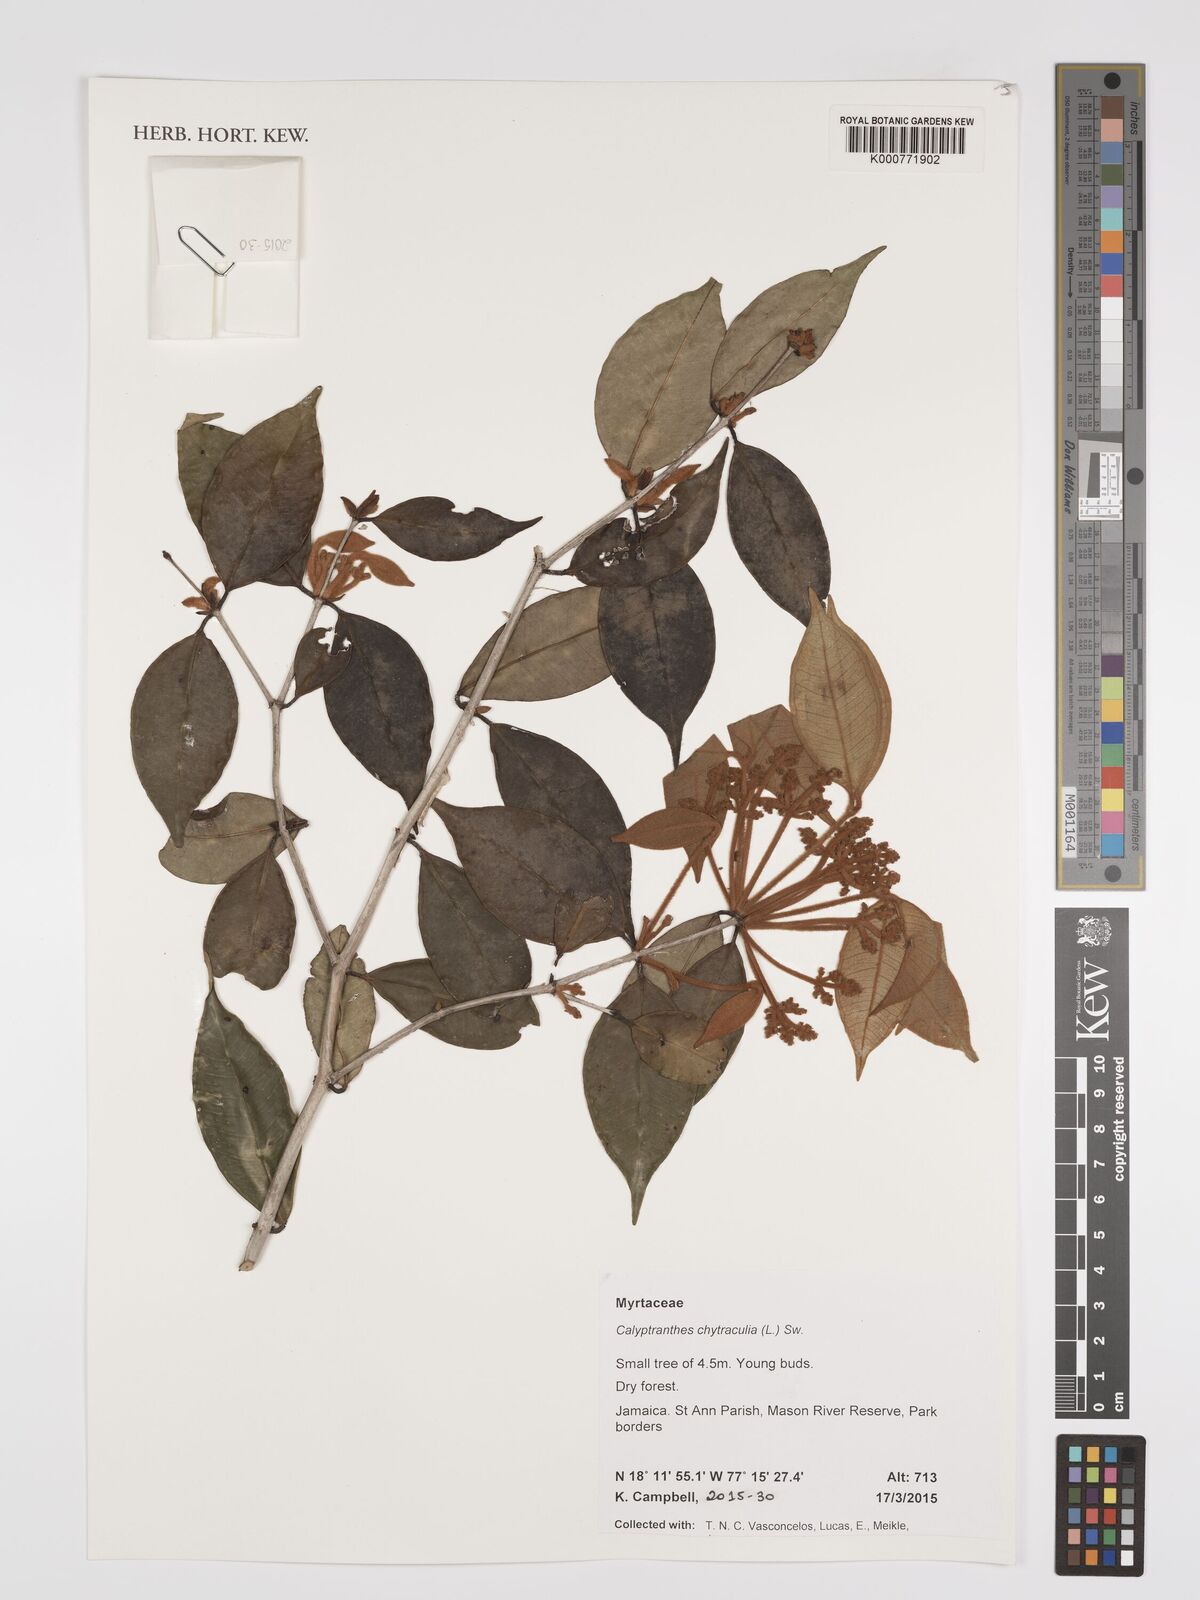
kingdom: Plantae
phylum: Tracheophyta
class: Magnoliopsida
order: Myrtales
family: Myrtaceae
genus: Myrcia
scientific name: Myrcia chytraculia
